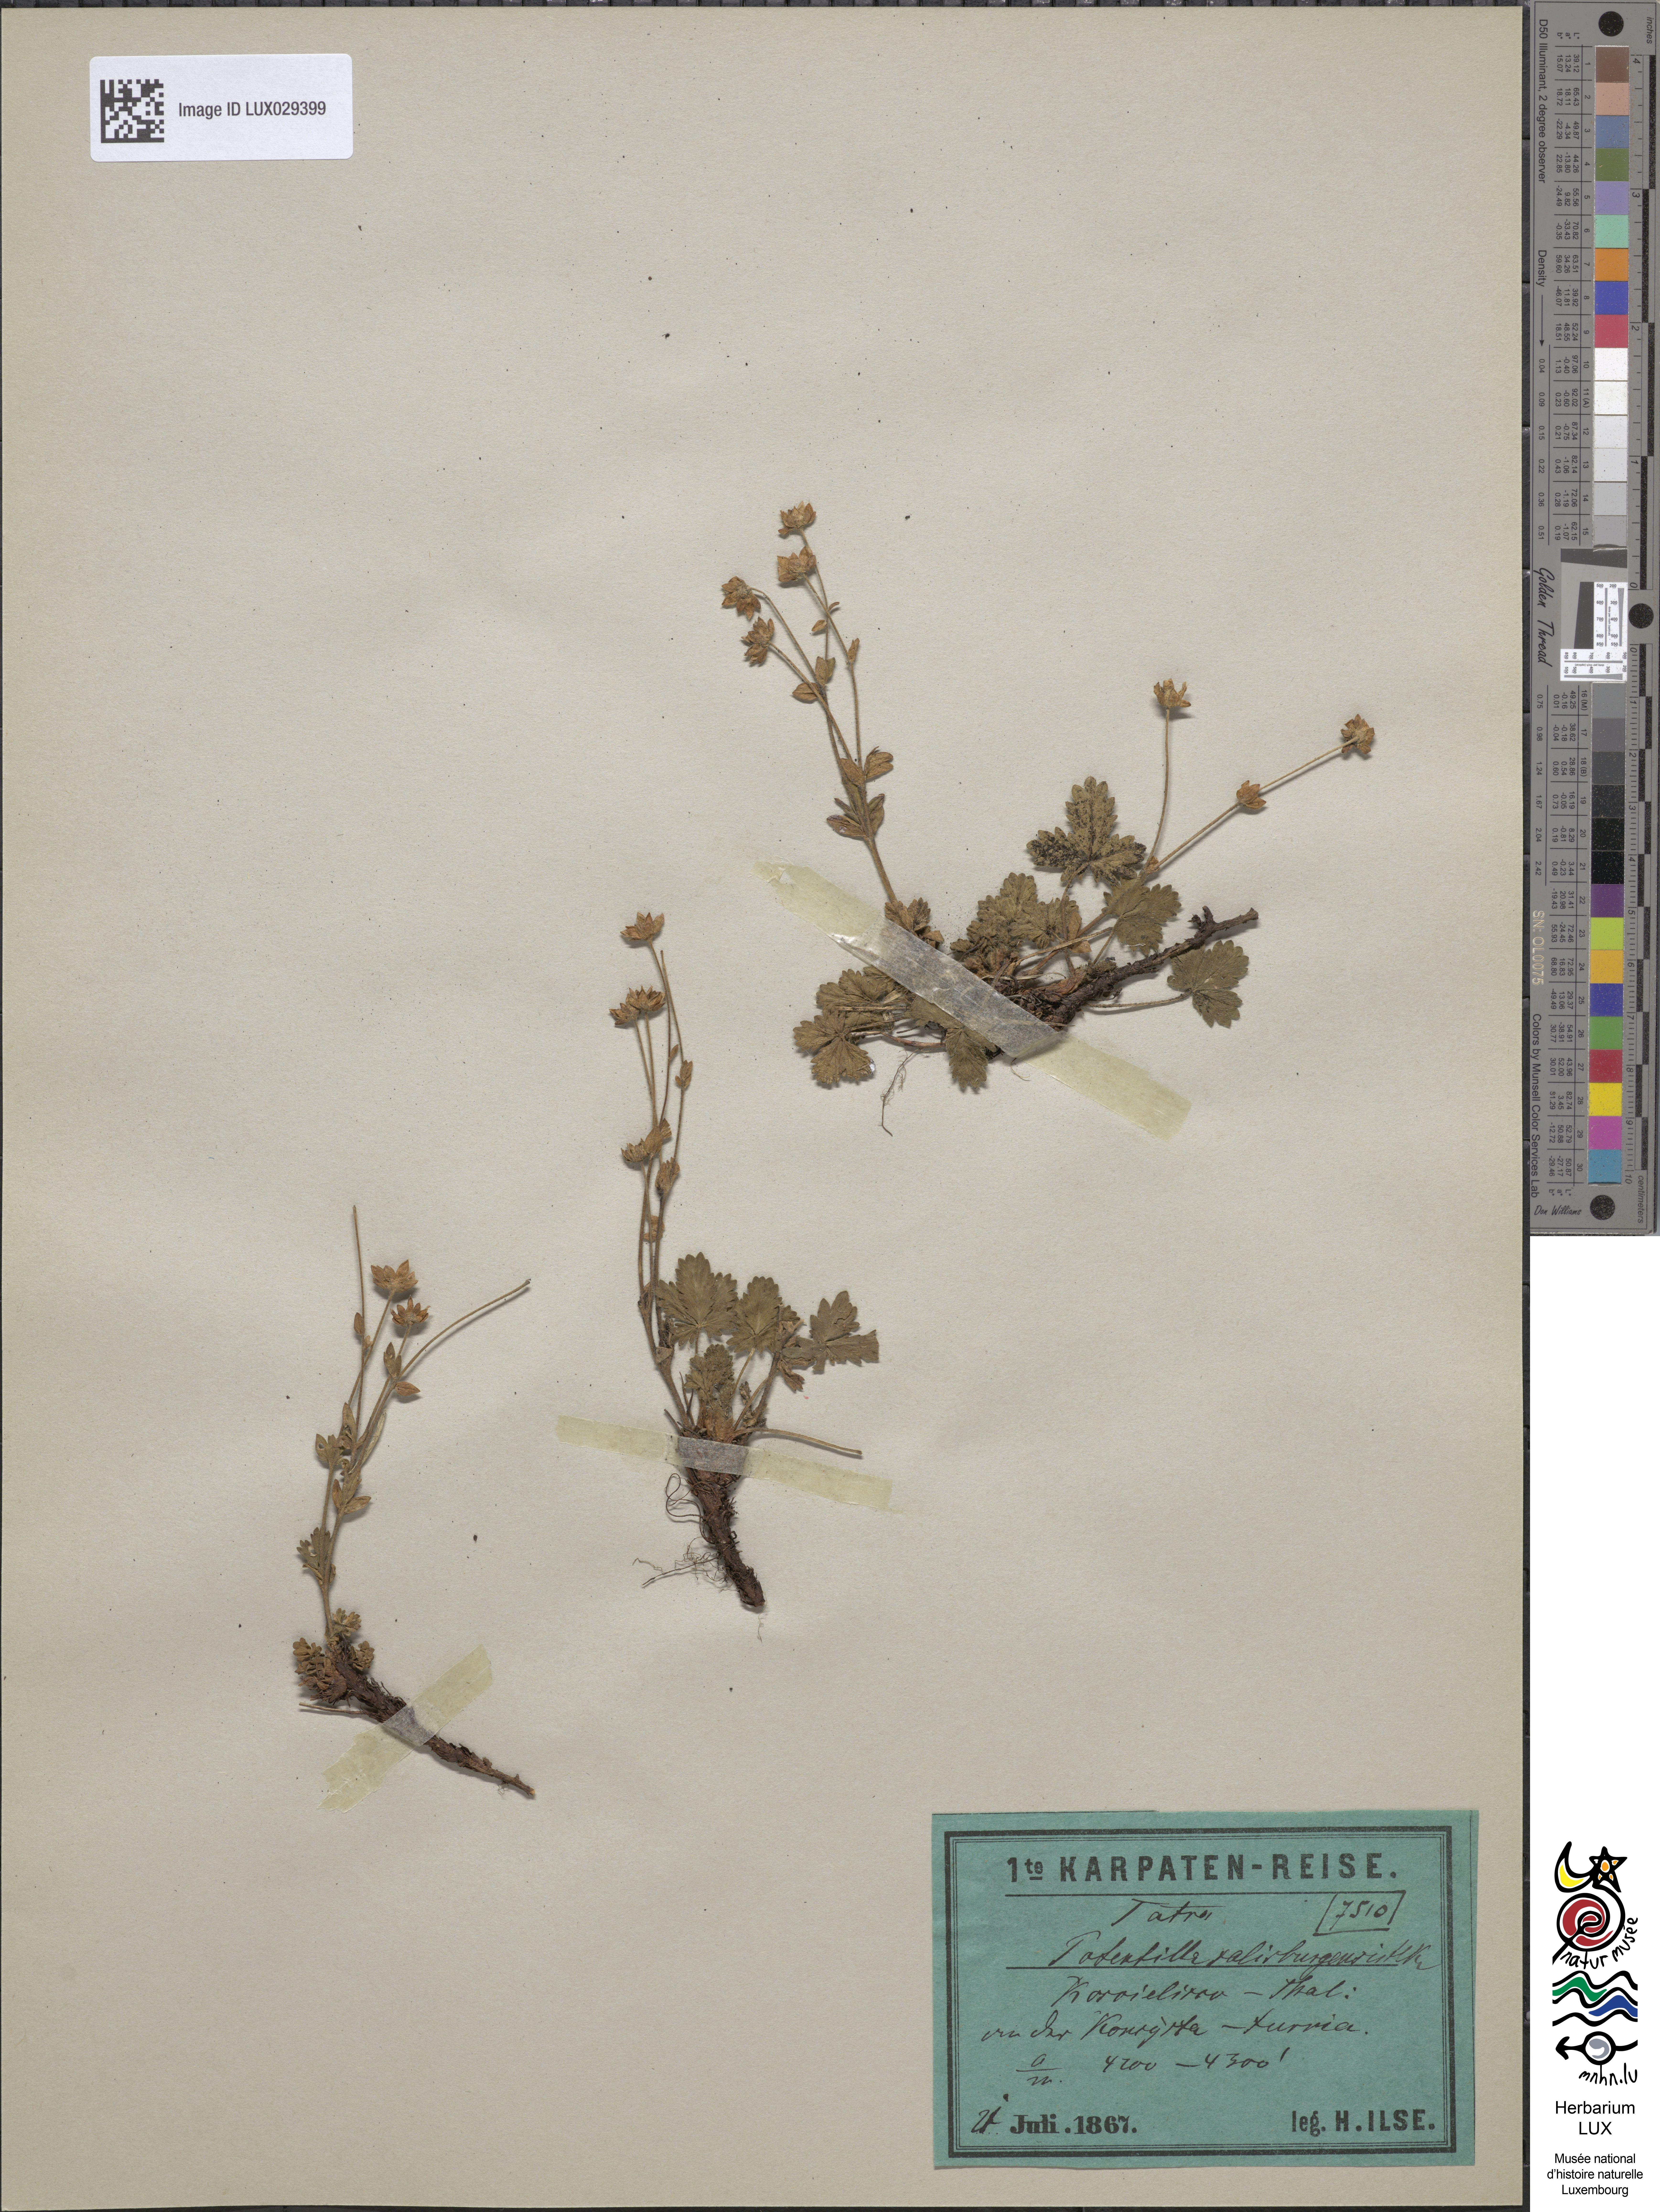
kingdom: Plantae
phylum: Tracheophyta
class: Magnoliopsida
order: Rosales
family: Rosaceae
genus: Potentilla
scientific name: Potentilla crantzii
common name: Alpine cinquefoil
